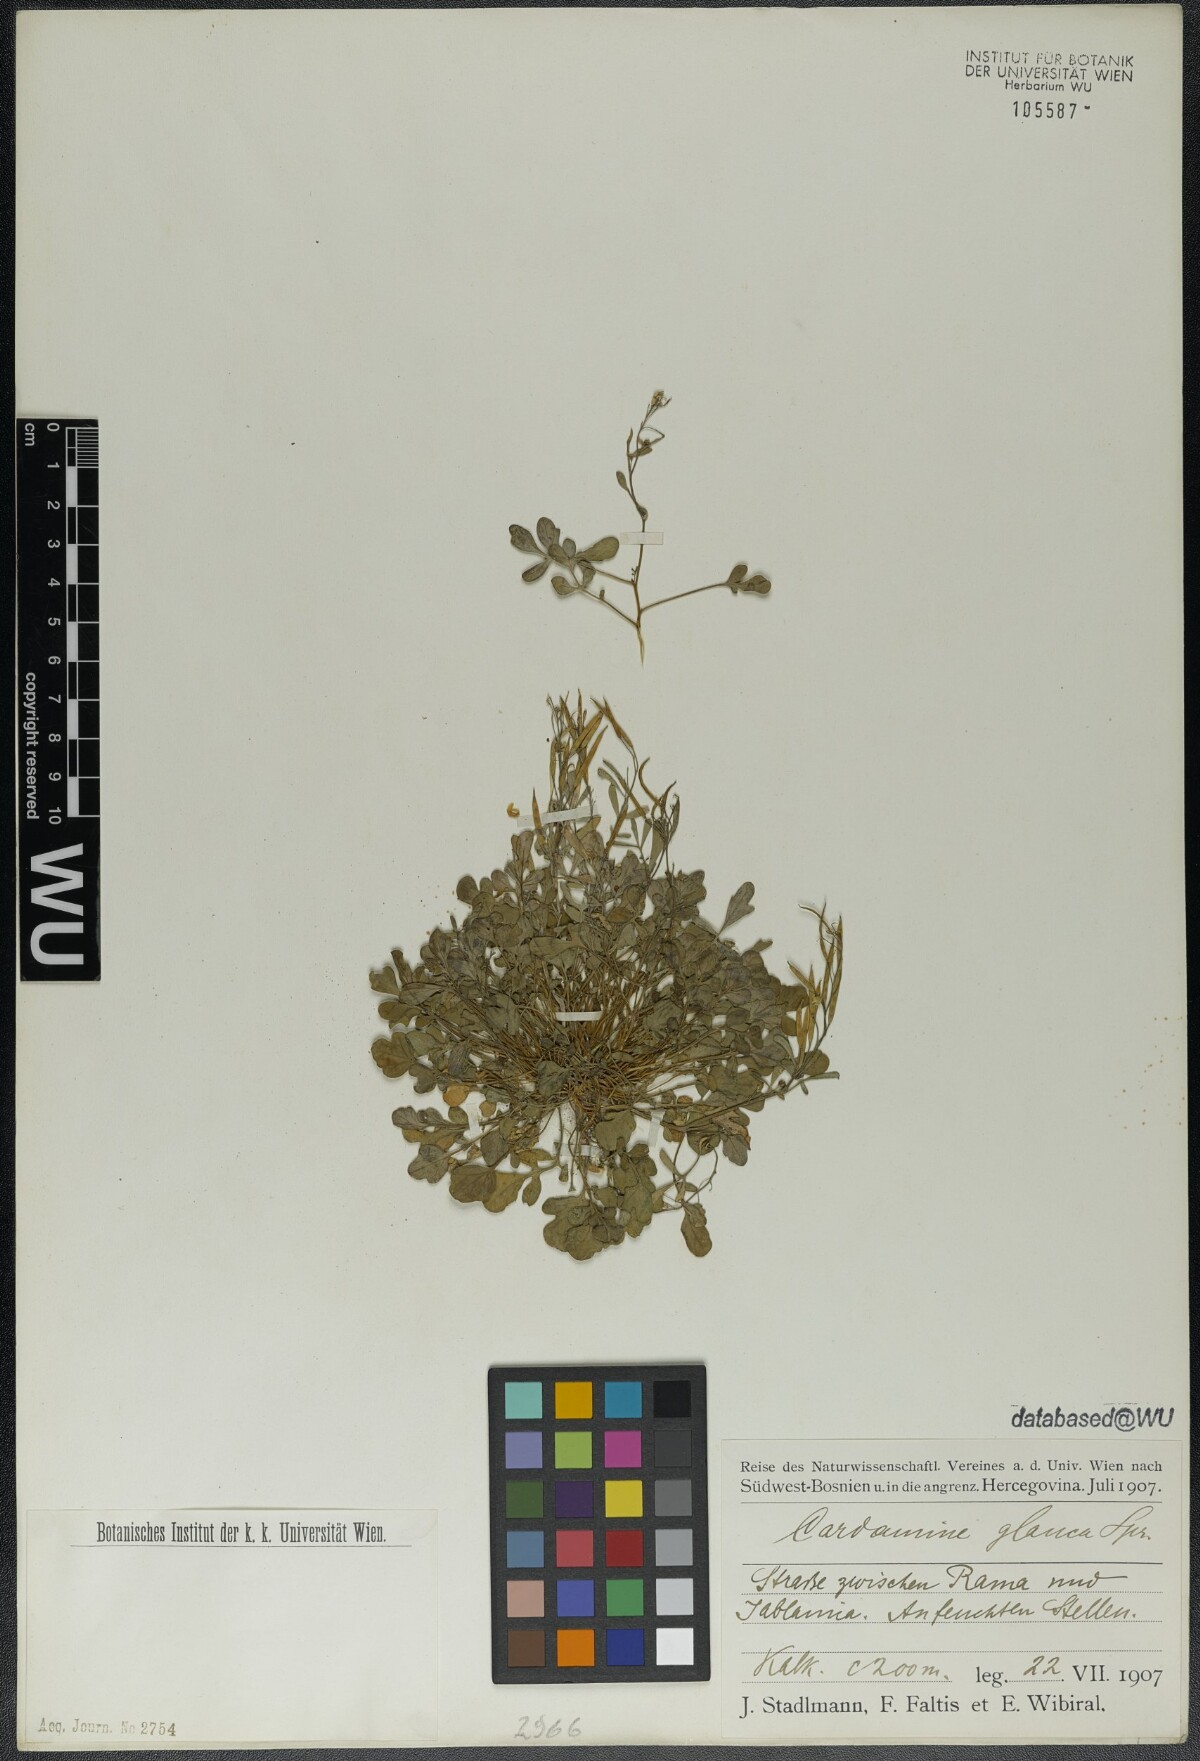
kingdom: Plantae
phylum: Tracheophyta
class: Magnoliopsida
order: Brassicales
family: Brassicaceae
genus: Cardamine
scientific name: Cardamine glauca
